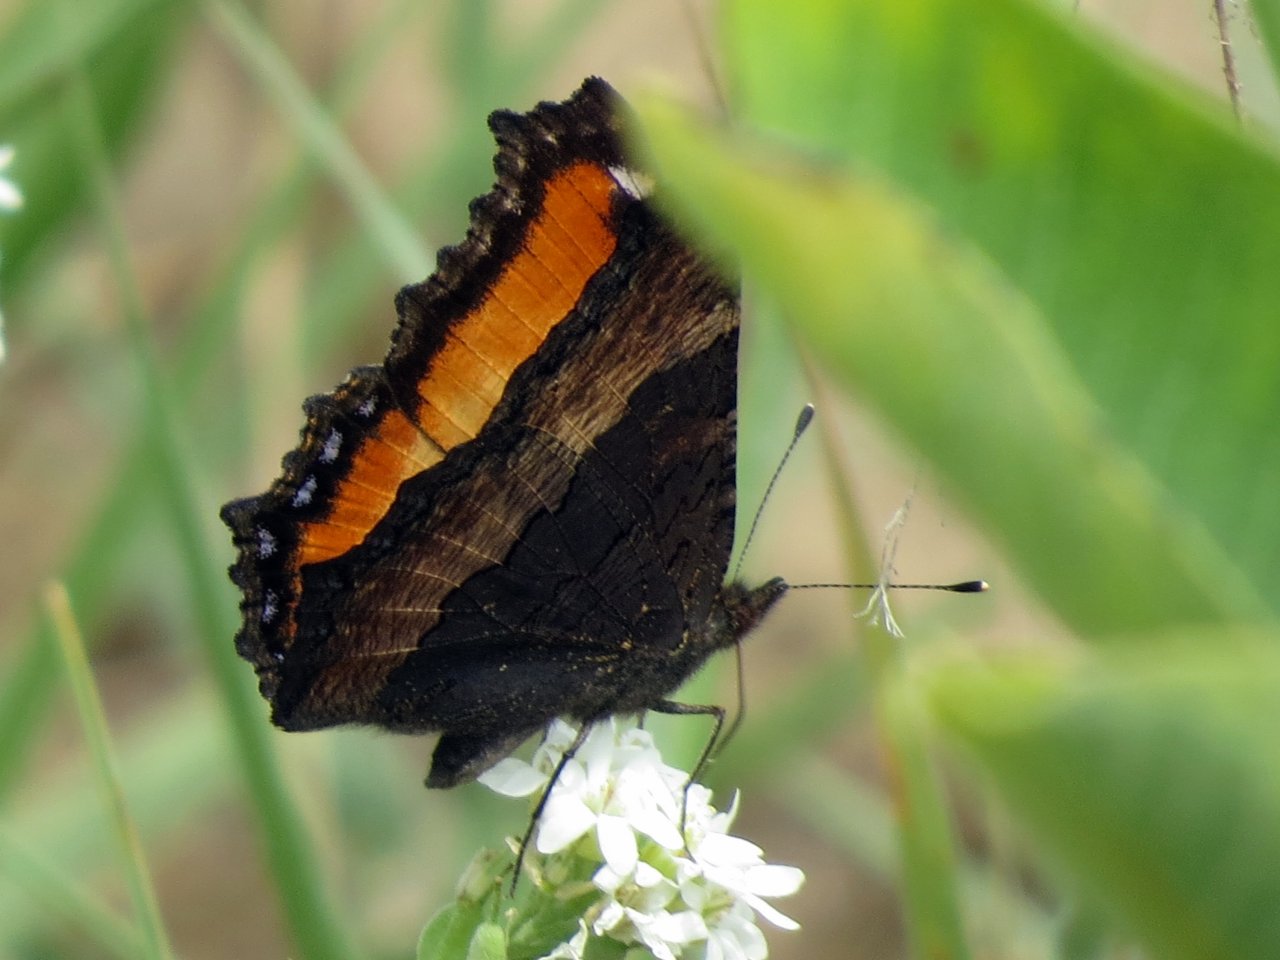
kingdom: Animalia
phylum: Arthropoda
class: Insecta
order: Lepidoptera
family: Nymphalidae
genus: Aglais
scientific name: Aglais milberti
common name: Milbert's Tortoiseshell
